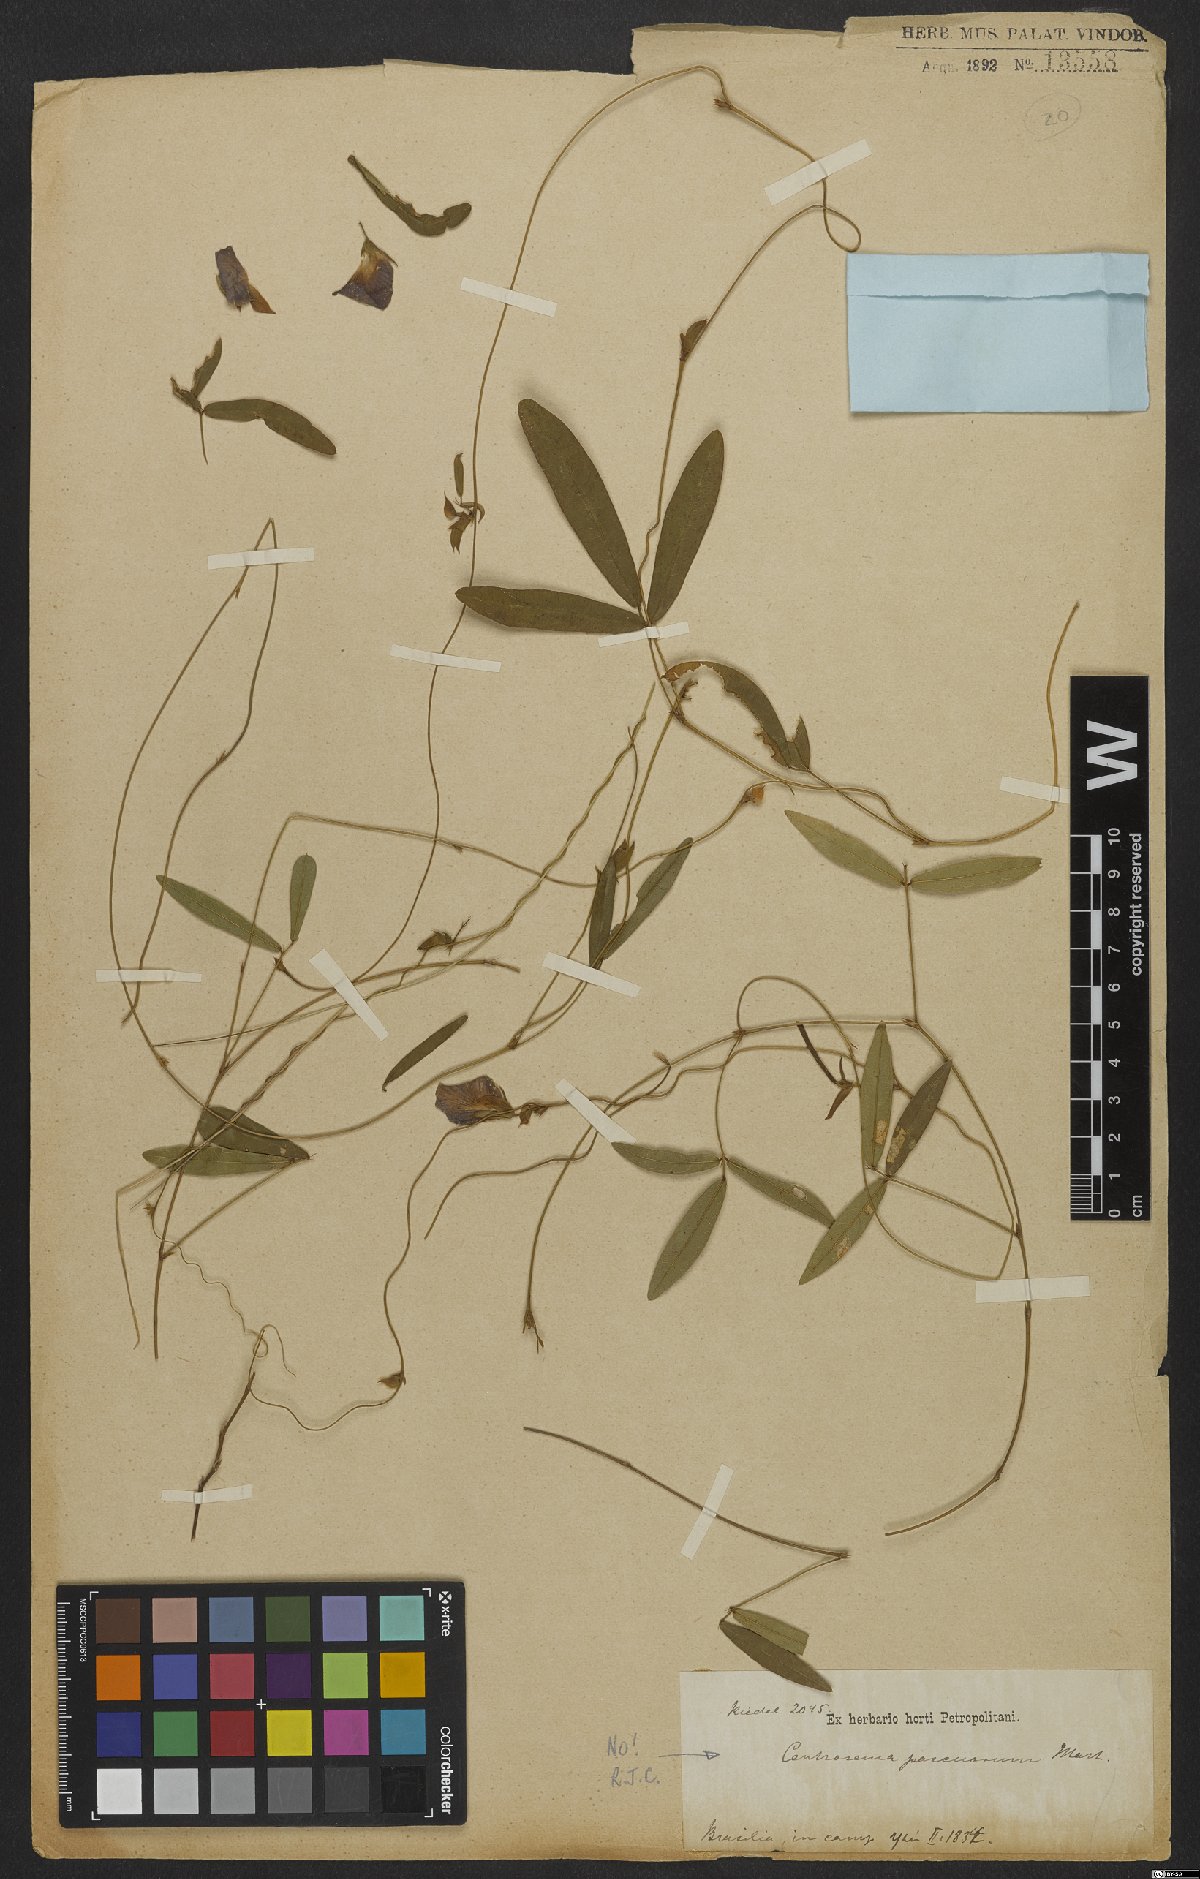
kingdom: Plantae
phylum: Tracheophyta
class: Magnoliopsida
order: Fabales
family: Fabaceae
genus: Centrosema
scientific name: Centrosema
